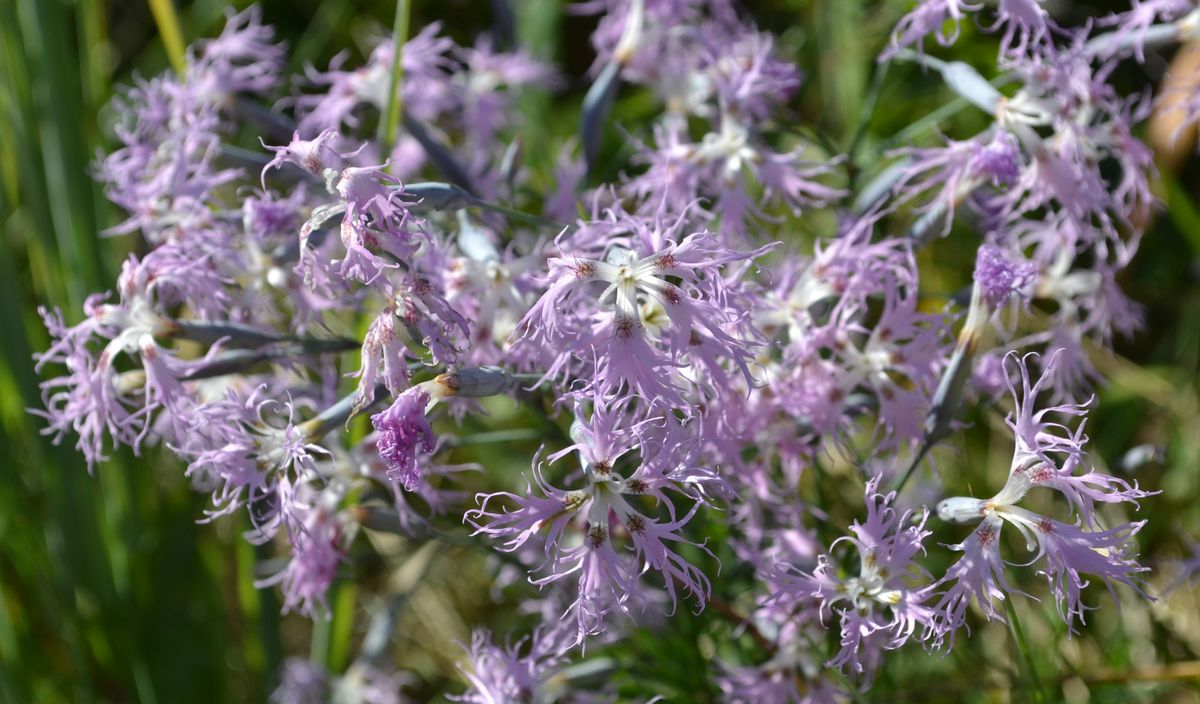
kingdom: Plantae
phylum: Tracheophyta
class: Magnoliopsida
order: Caryophyllales
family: Caryophyllaceae
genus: Dianthus
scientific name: Dianthus superbus
